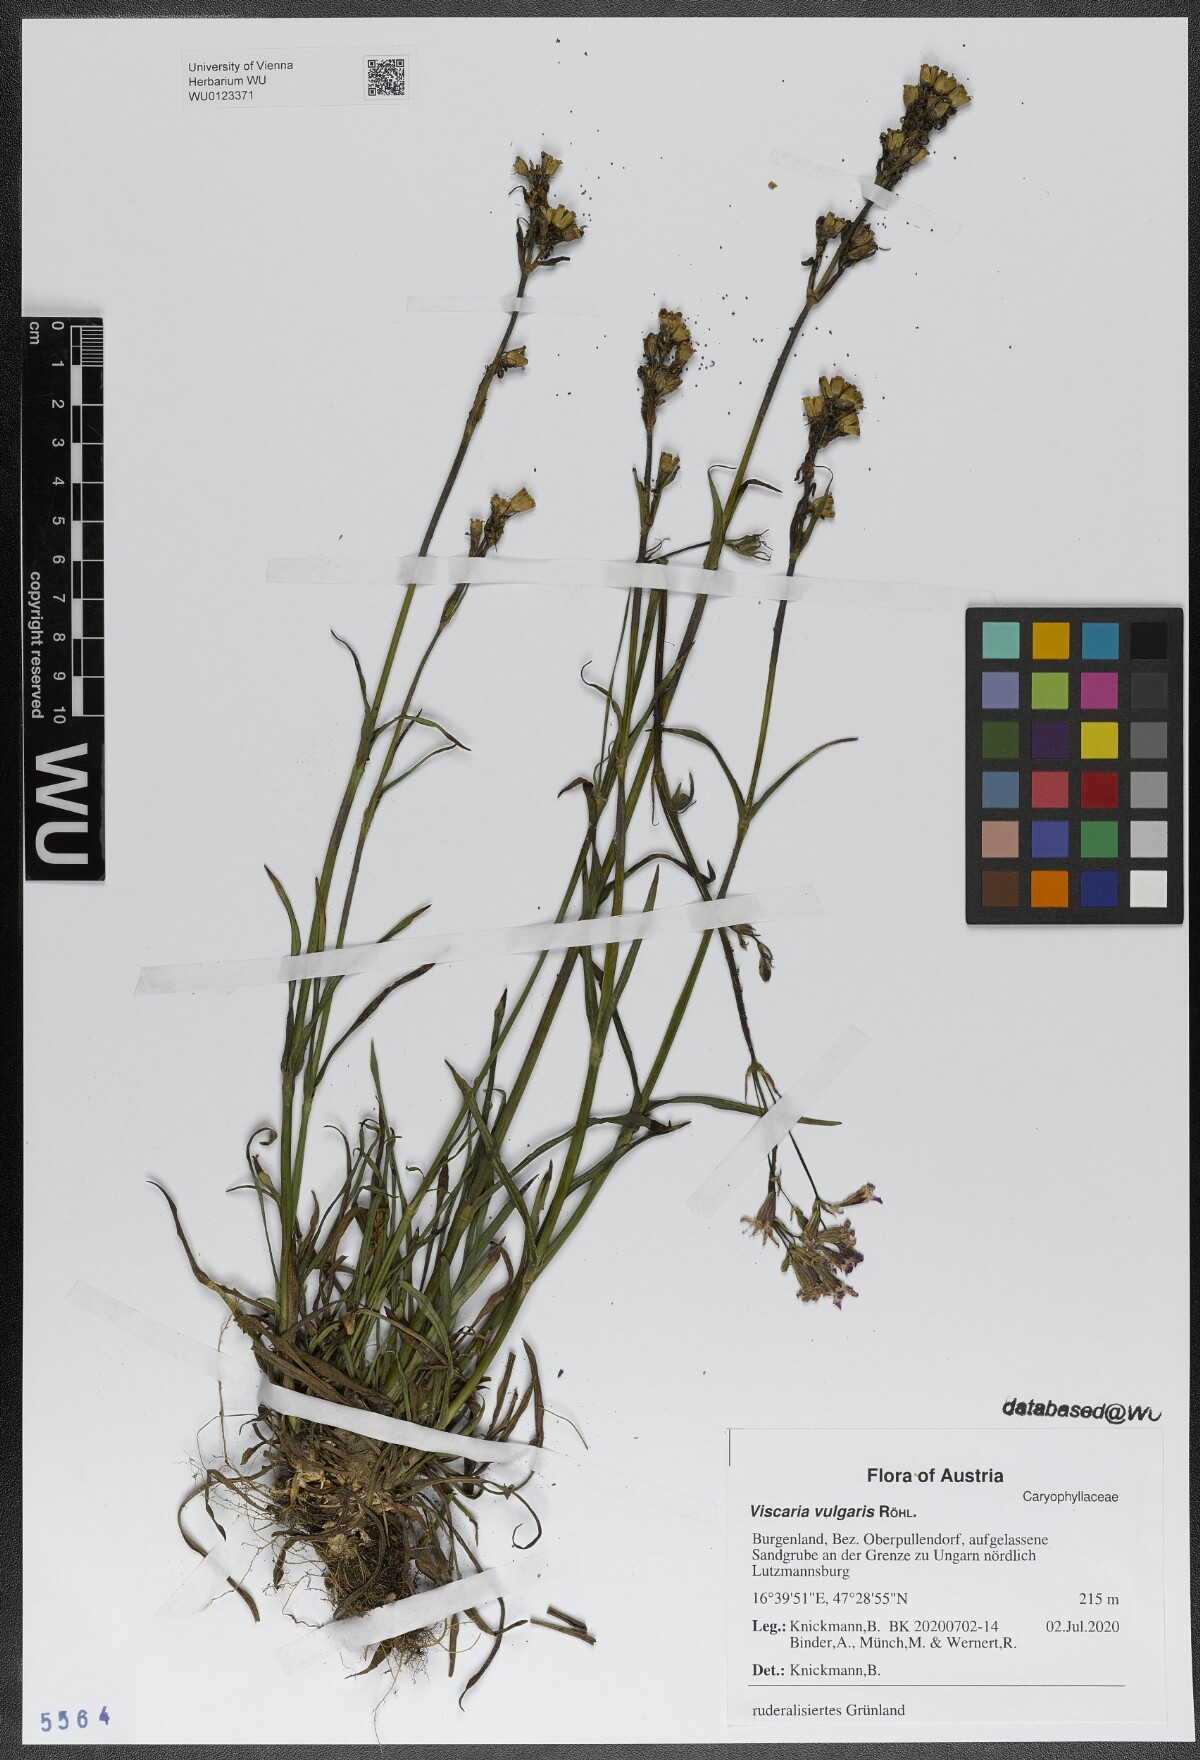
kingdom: Plantae
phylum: Tracheophyta
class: Magnoliopsida
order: Caryophyllales
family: Caryophyllaceae
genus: Viscaria
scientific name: Viscaria vulgaris
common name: Clammy campion
